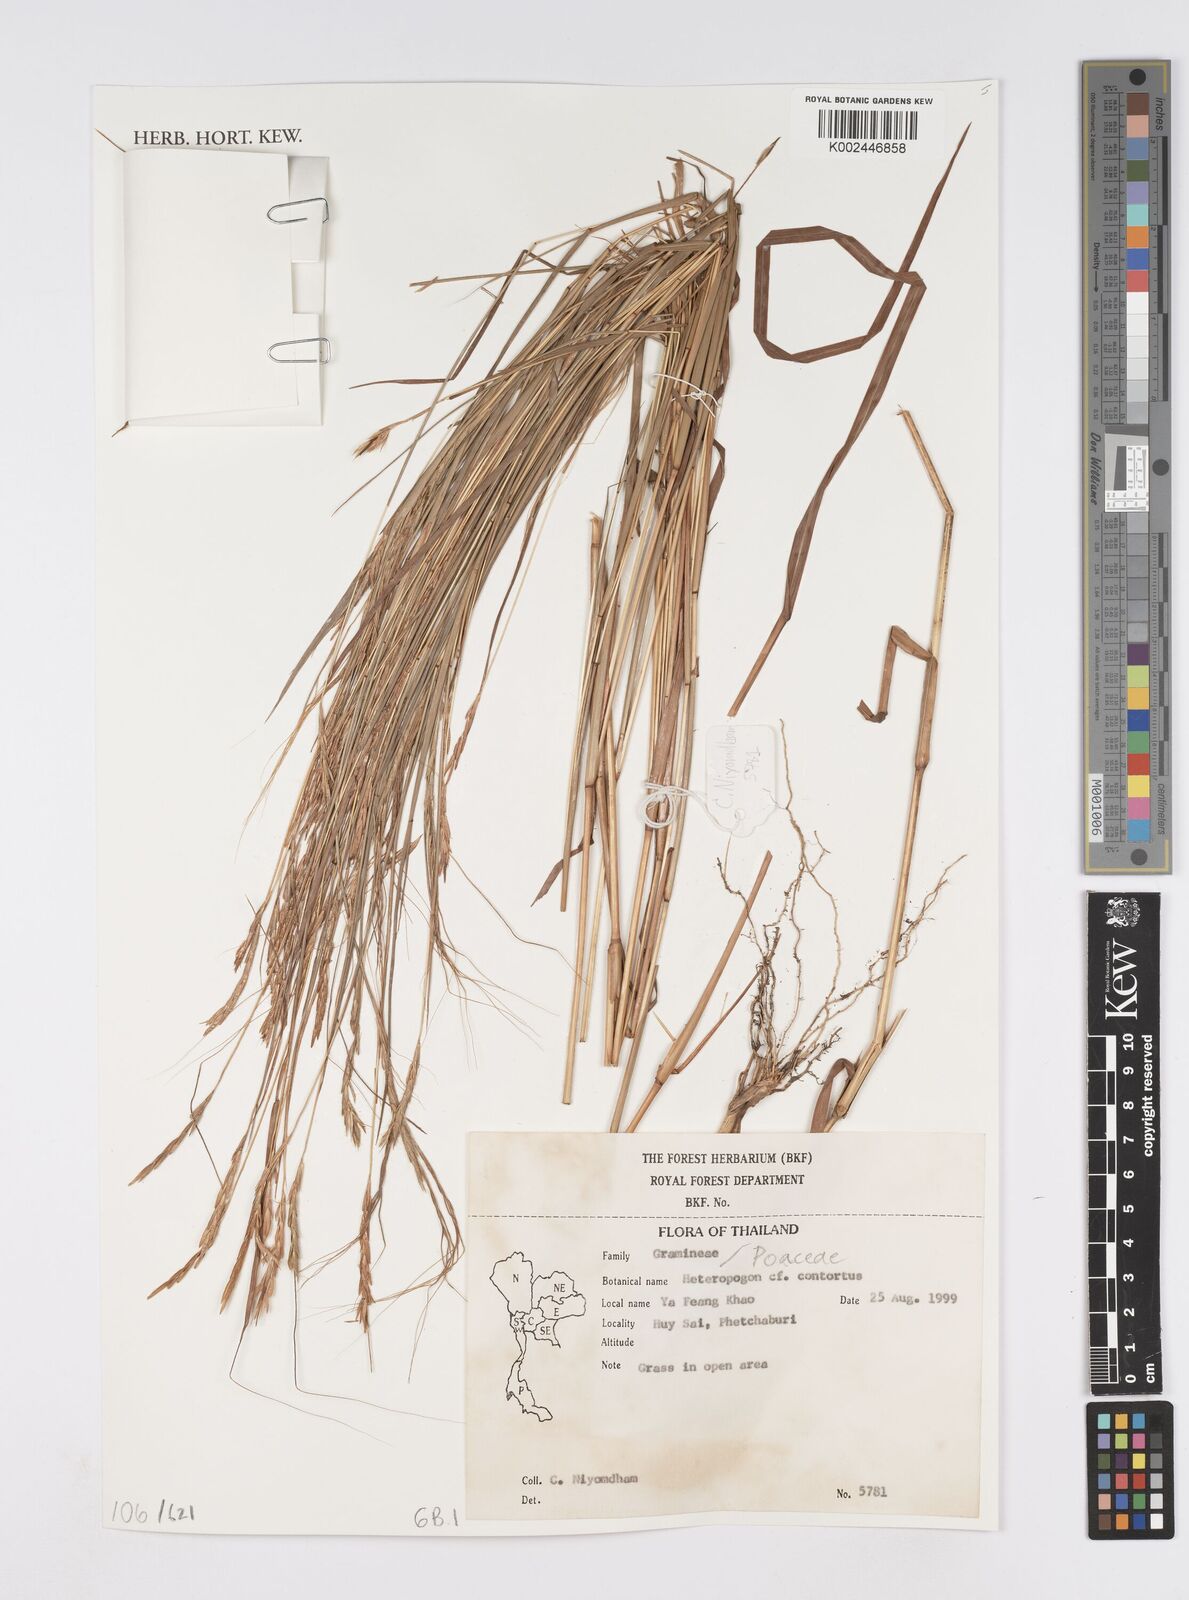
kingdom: Plantae
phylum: Tracheophyta
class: Liliopsida
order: Poales
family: Poaceae
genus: Heteropogon
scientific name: Heteropogon contortus
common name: Tanglehead
